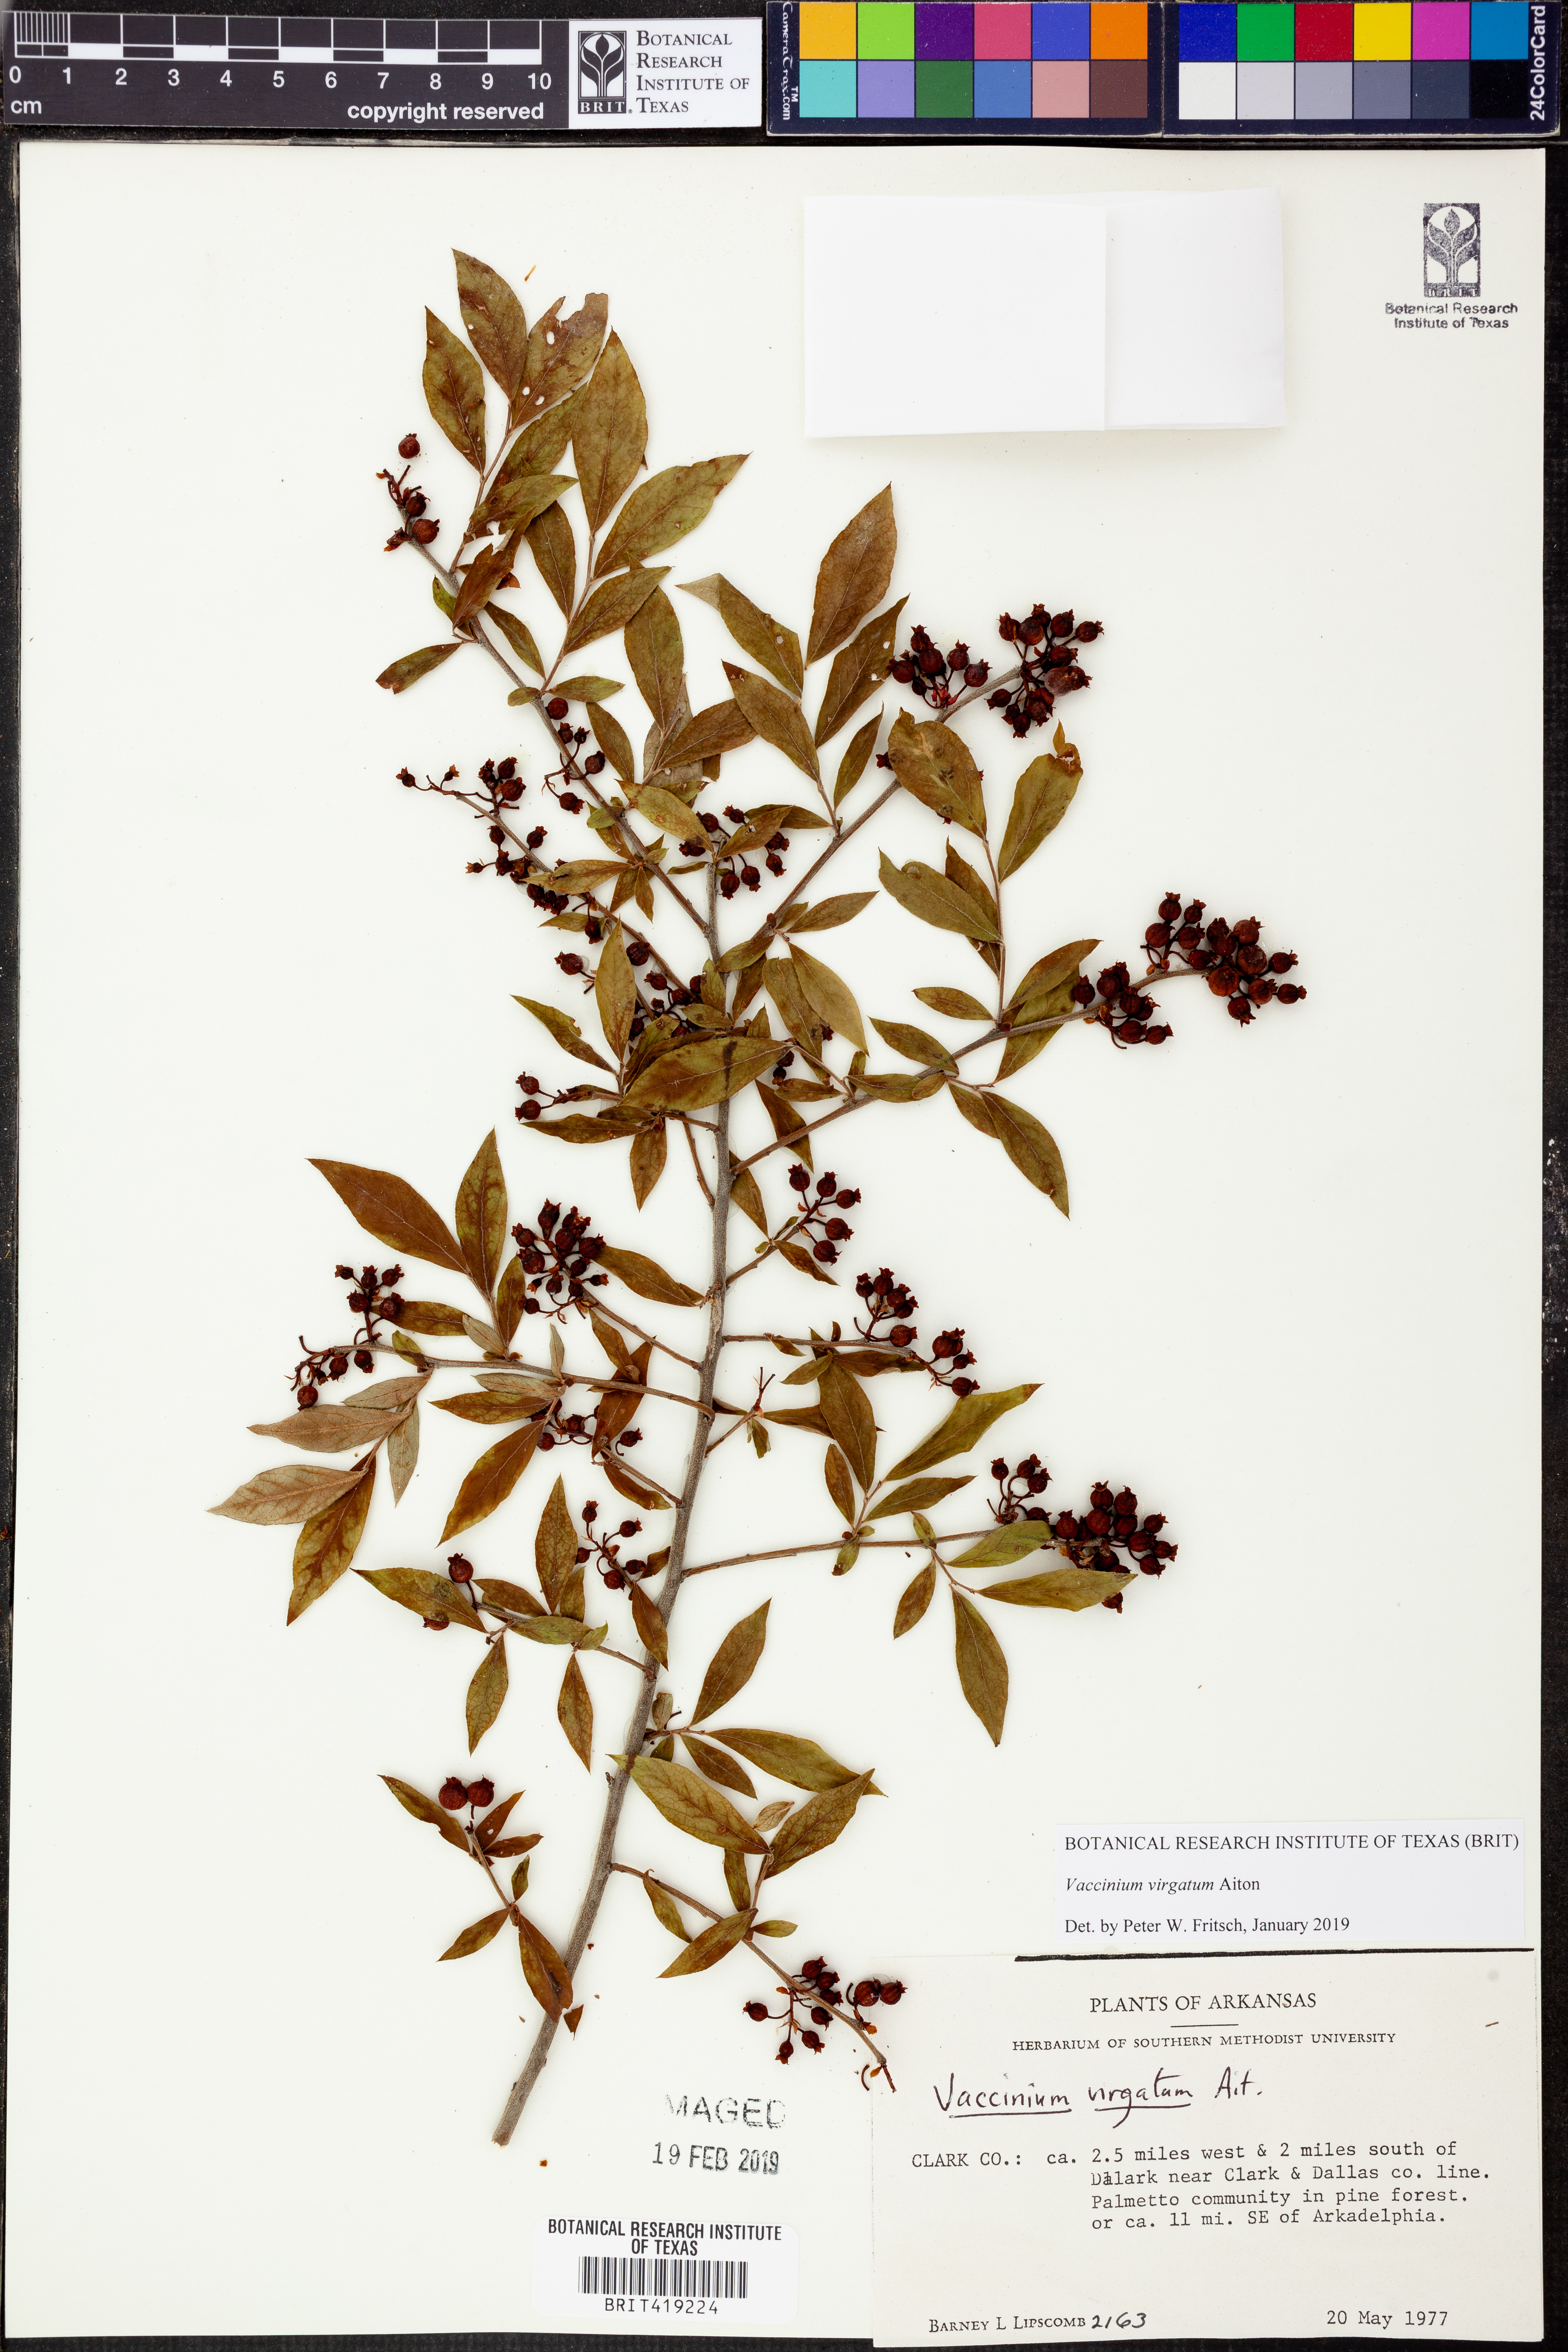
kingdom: Plantae
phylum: Tracheophyta
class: Magnoliopsida
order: Ericales
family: Ericaceae
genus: Vaccinium
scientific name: Vaccinium corymbosum
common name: Blueberry
